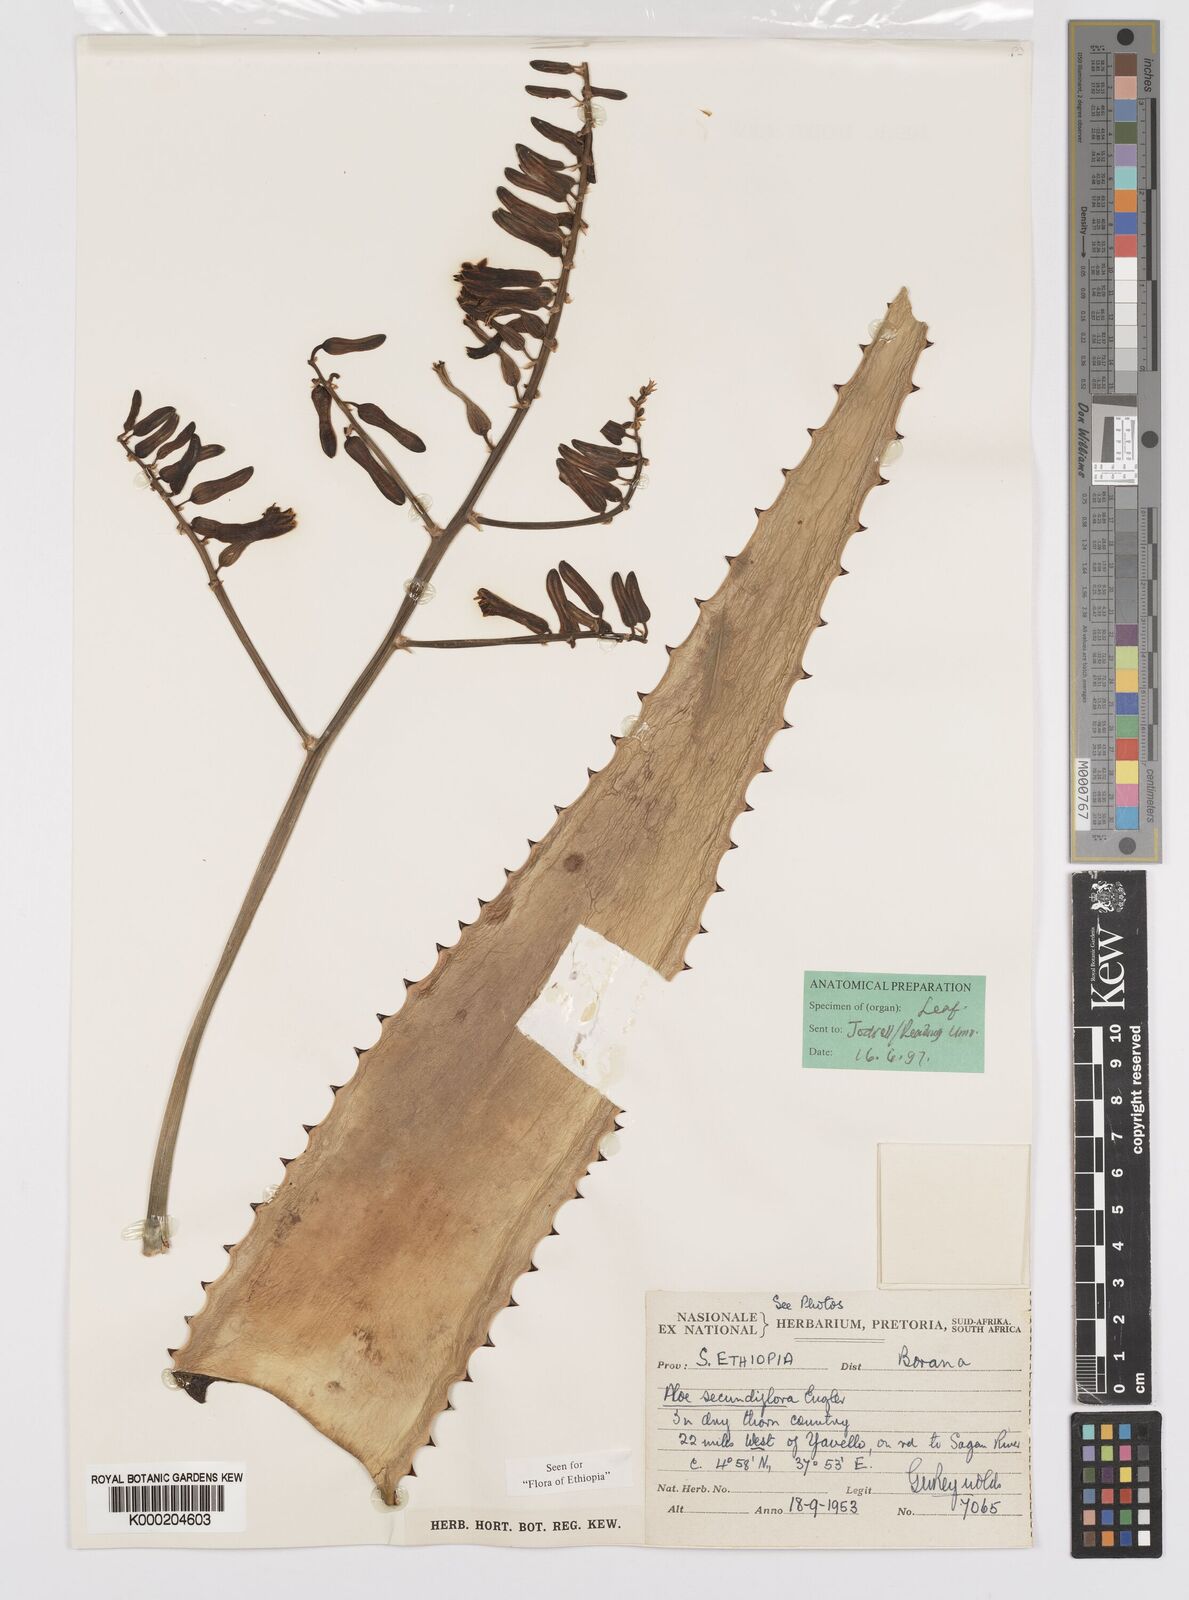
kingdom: Plantae
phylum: Tracheophyta
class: Liliopsida
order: Asparagales
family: Asphodelaceae
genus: Aloe
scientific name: Aloe secundiflora
